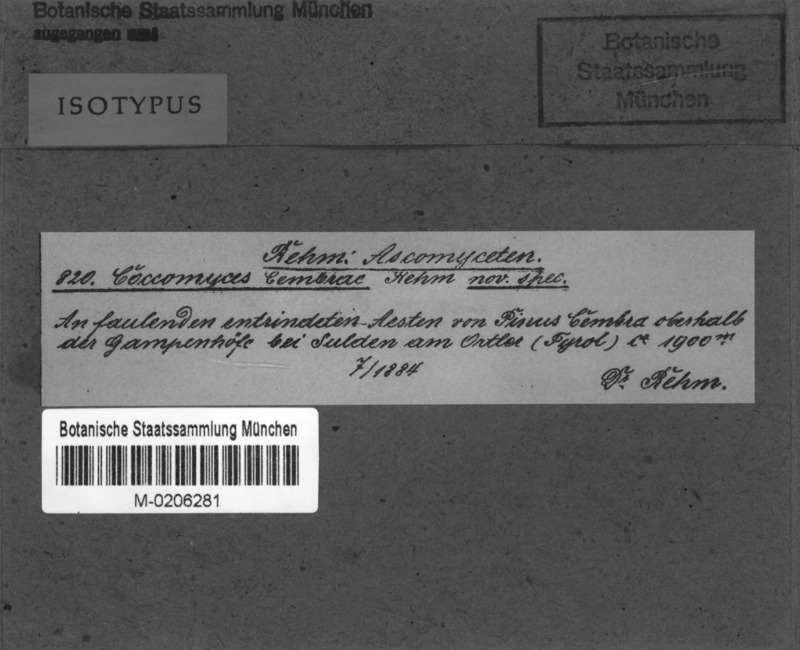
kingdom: Fungi
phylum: Ascomycota
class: Leotiomycetes
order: Rhytismatales
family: Rhytismataceae
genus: Coccomyces
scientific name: Coccomyces cembrae
